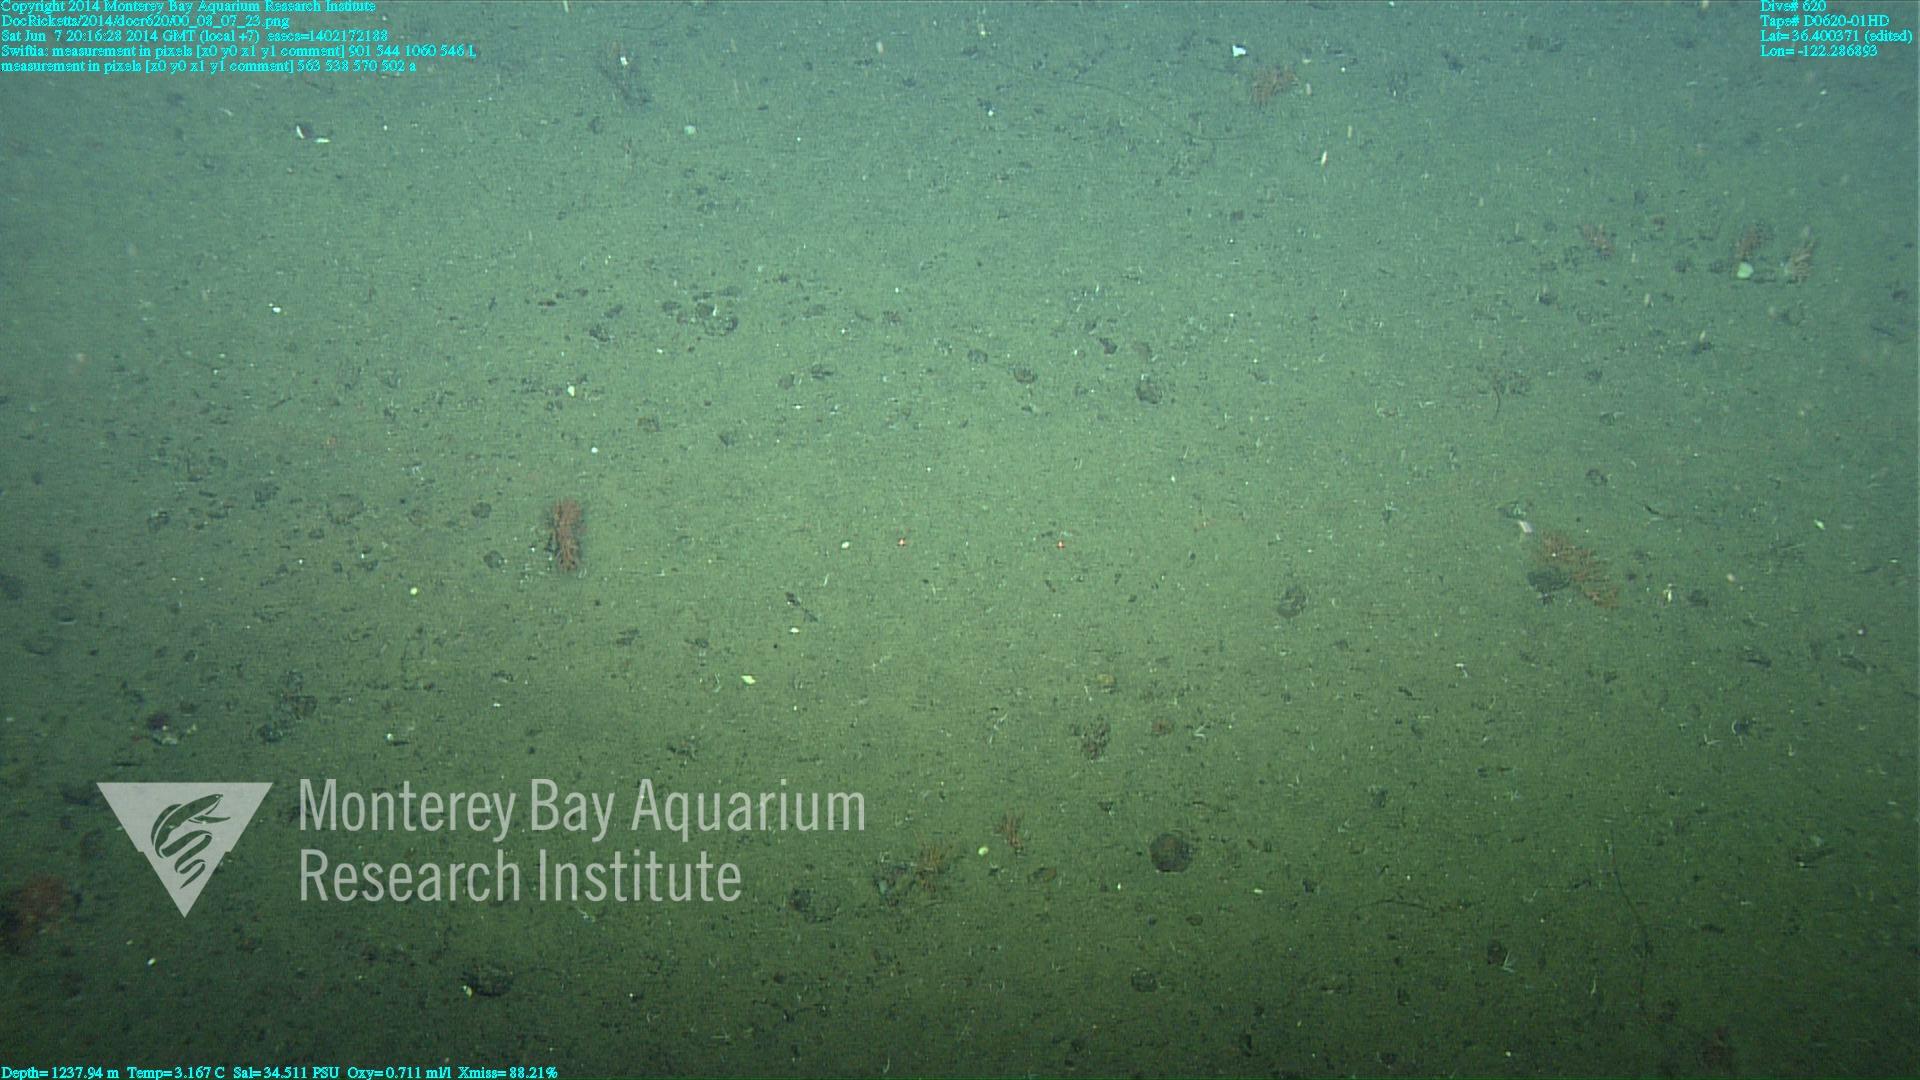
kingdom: Animalia
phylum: Cnidaria
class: Anthozoa
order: Malacalcyonacea
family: Gorgoniidae
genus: Callistephanus
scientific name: Callistephanus kofoidi
